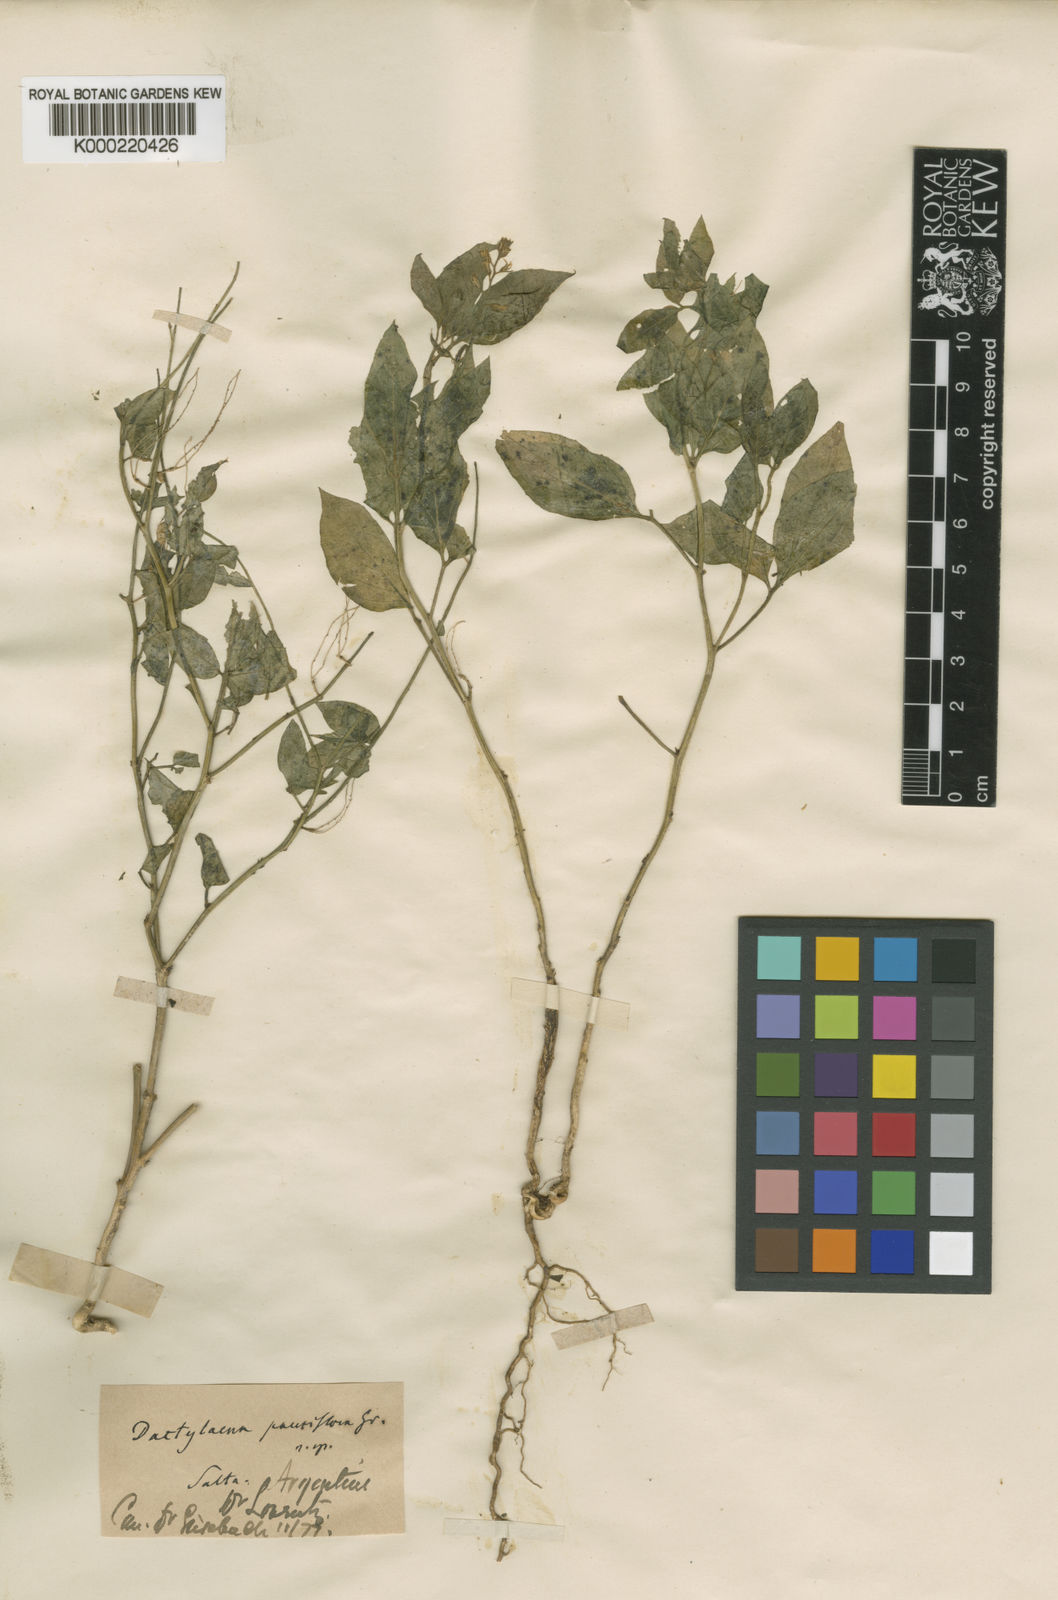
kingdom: Plantae
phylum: Tracheophyta
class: Magnoliopsida
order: Brassicales
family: Cleomaceae
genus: Dactylaena
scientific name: Dactylaena pauciflora
